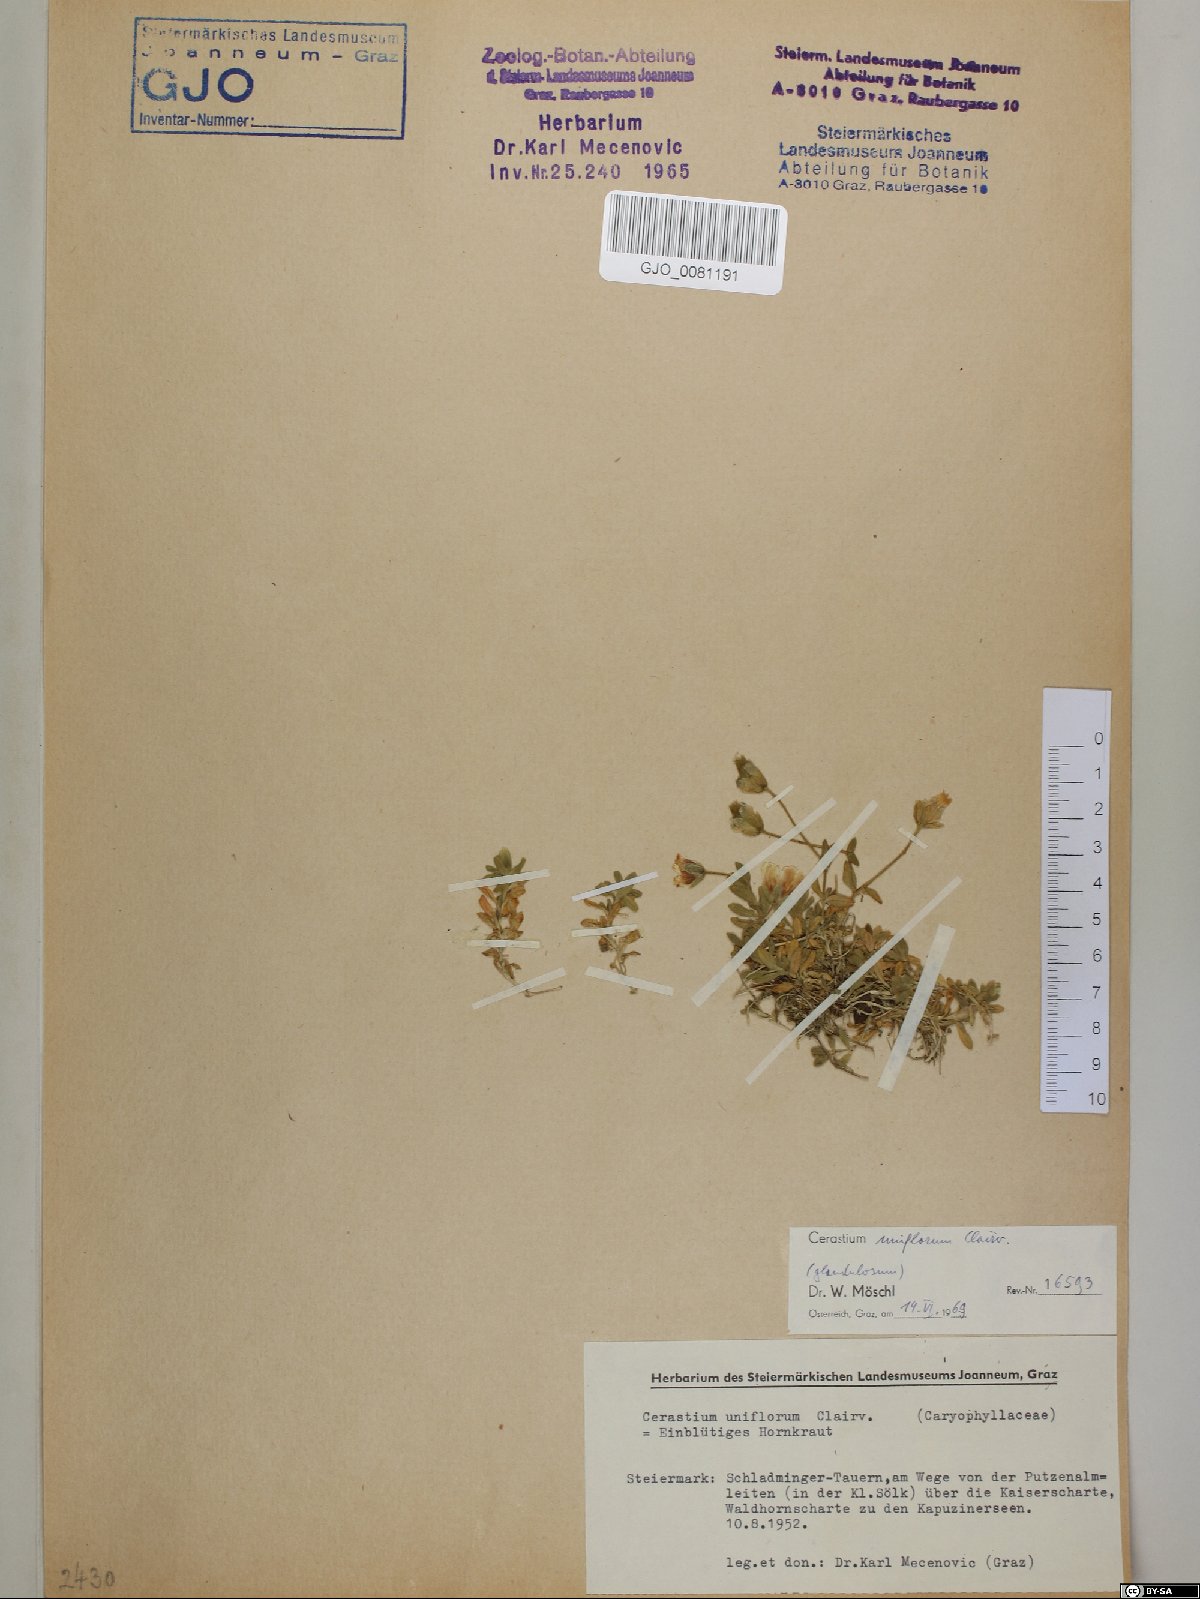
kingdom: Plantae
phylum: Tracheophyta
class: Magnoliopsida
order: Caryophyllales
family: Caryophyllaceae
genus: Cerastium
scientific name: Cerastium uniflorum
